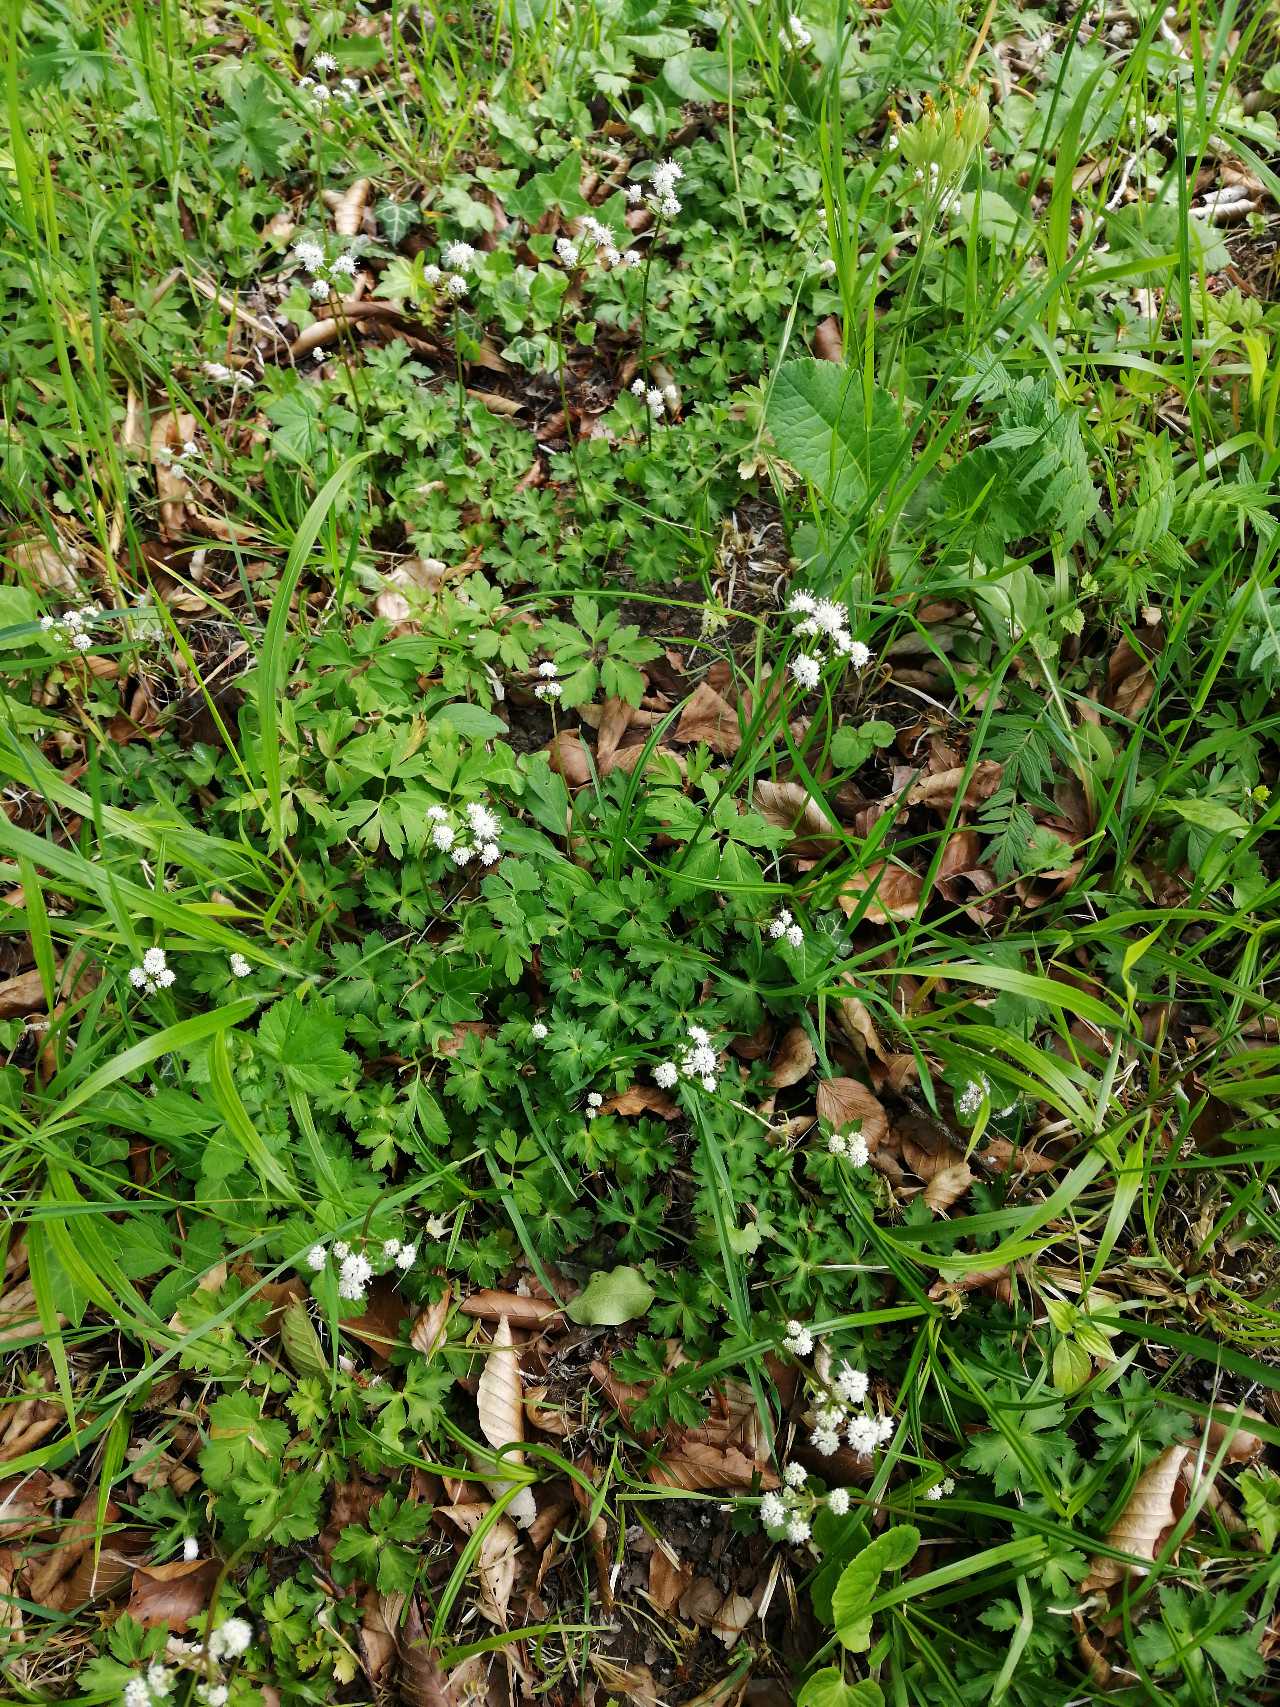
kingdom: Plantae
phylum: Tracheophyta
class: Magnoliopsida
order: Apiales
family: Apiaceae
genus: Sanicula
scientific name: Sanicula europaea
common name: Sanikel
